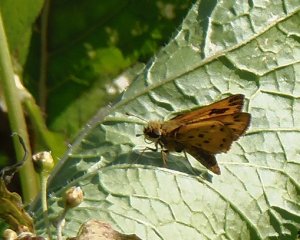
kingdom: Animalia
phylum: Arthropoda
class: Insecta
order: Lepidoptera
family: Hesperiidae
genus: Hylephila
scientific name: Hylephila phyleus
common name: Fiery Skipper
